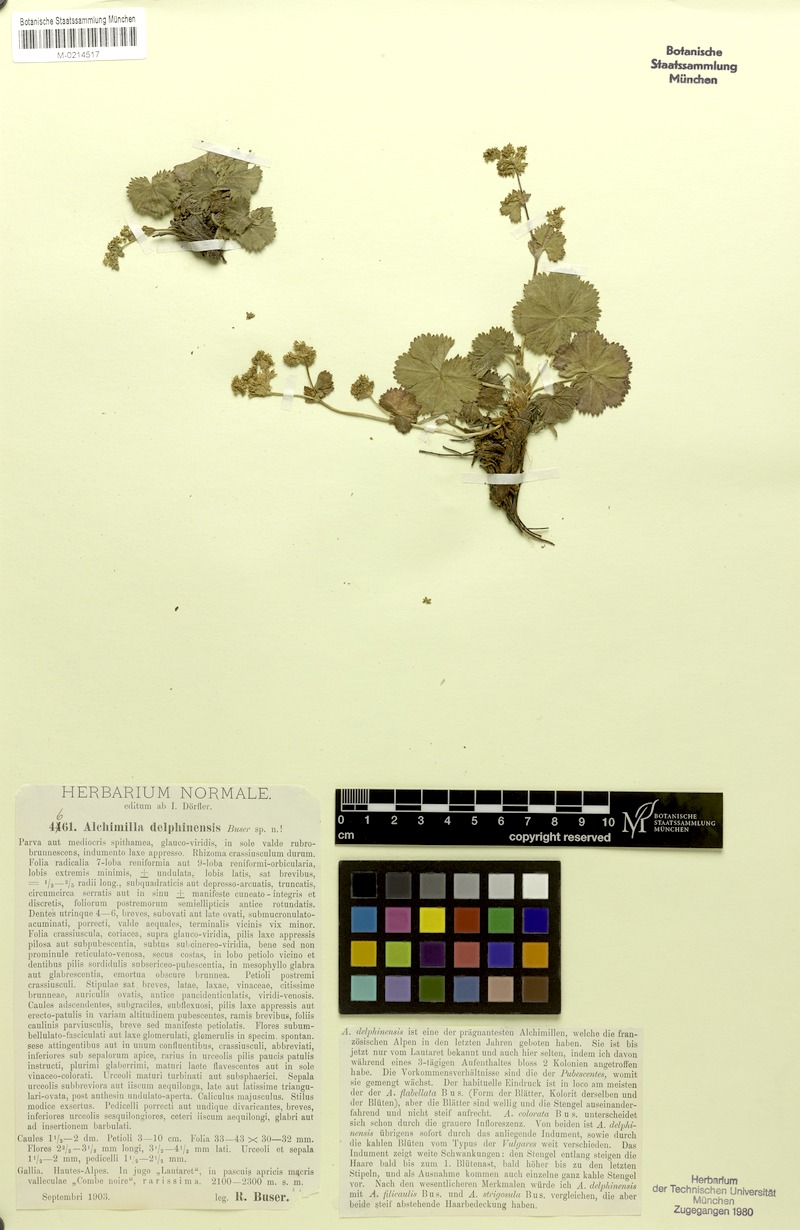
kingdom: Plantae
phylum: Tracheophyta
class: Magnoliopsida
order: Rosales
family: Rosaceae
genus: Alchemilla
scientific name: Alchemilla delphinensis
